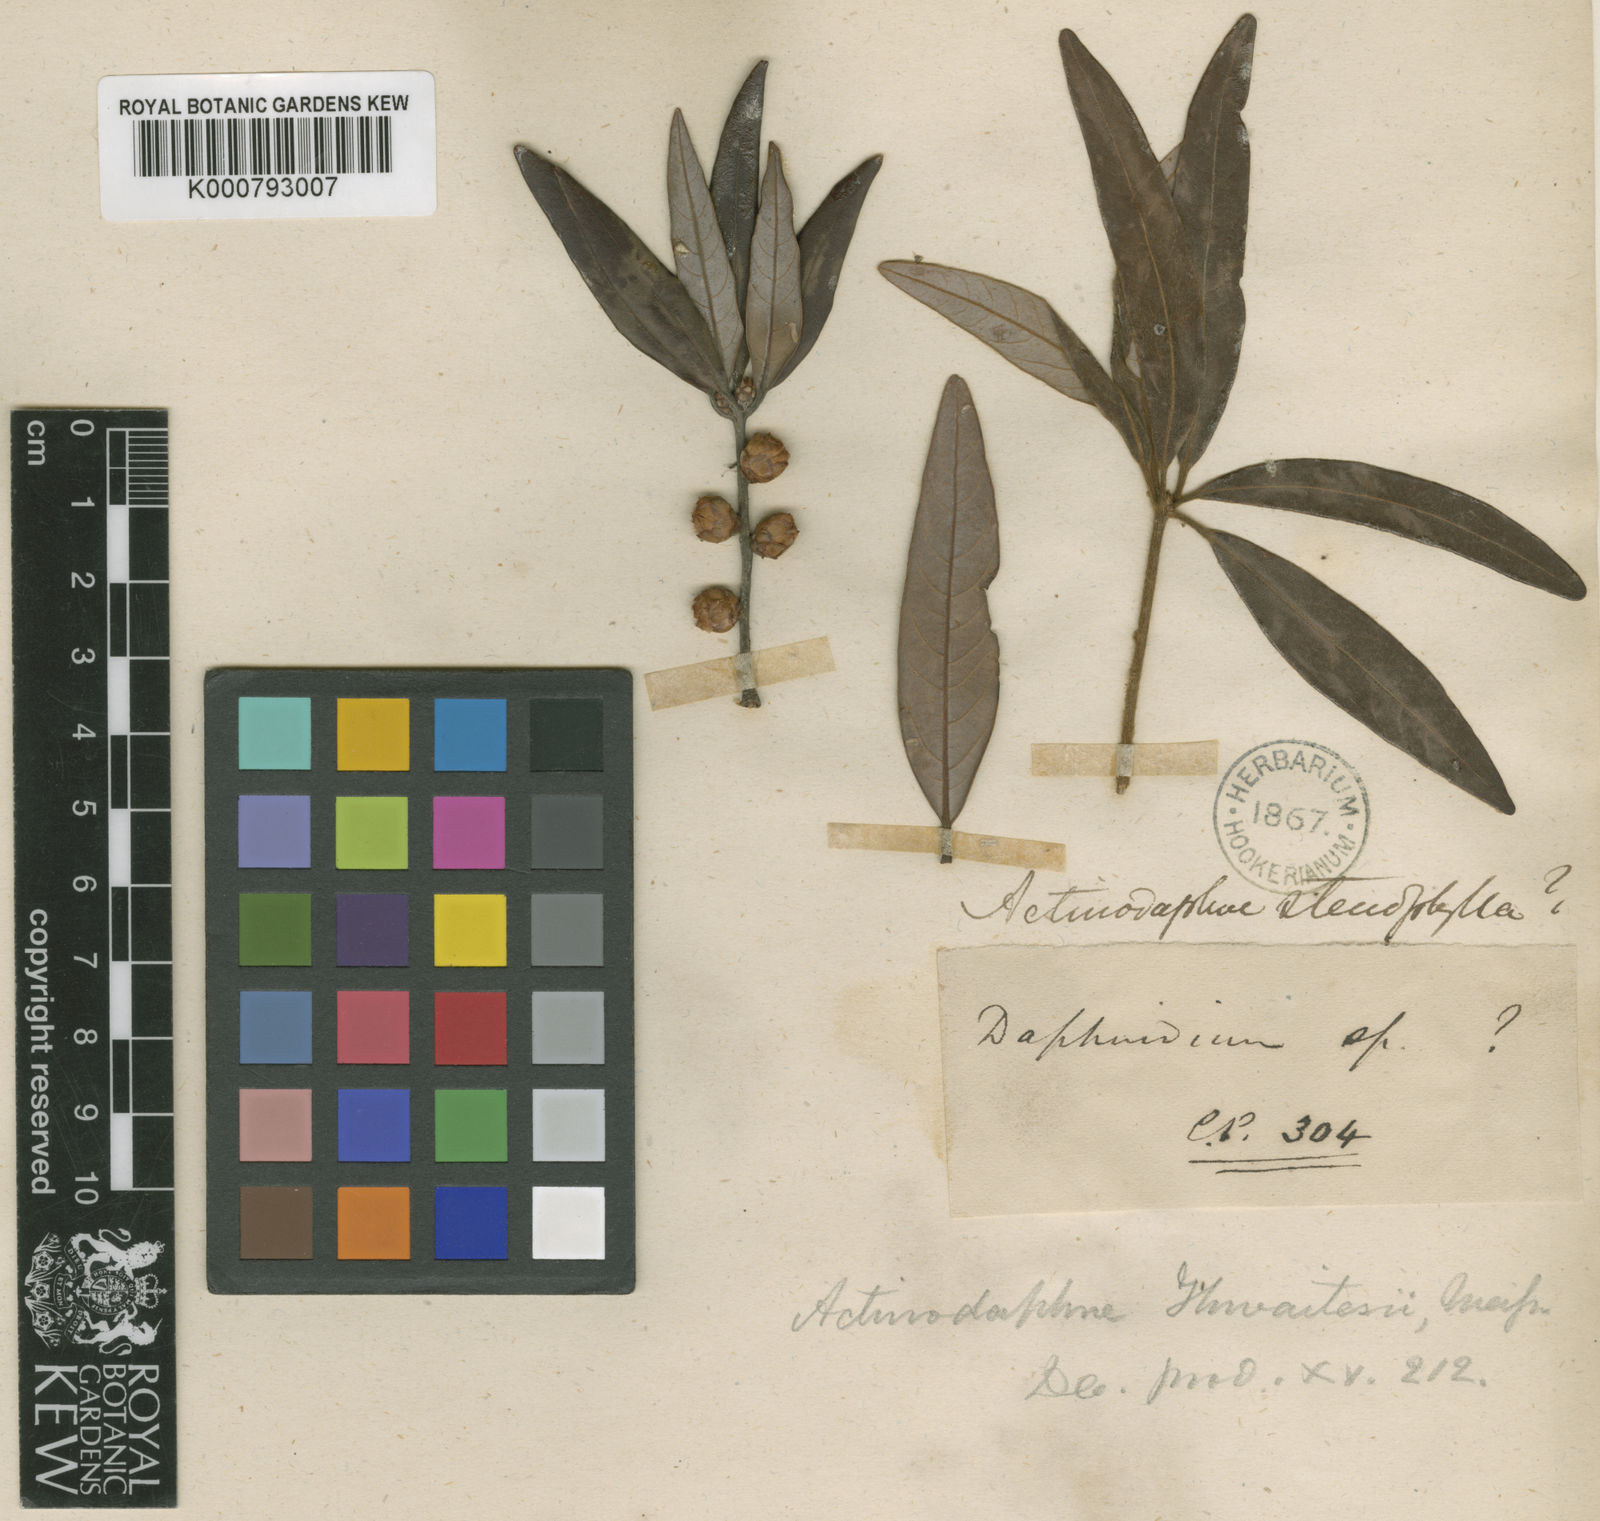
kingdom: Plantae
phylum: Tracheophyta
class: Magnoliopsida
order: Laurales
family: Lauraceae
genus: Actinodaphne
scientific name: Actinodaphne stenophylla
